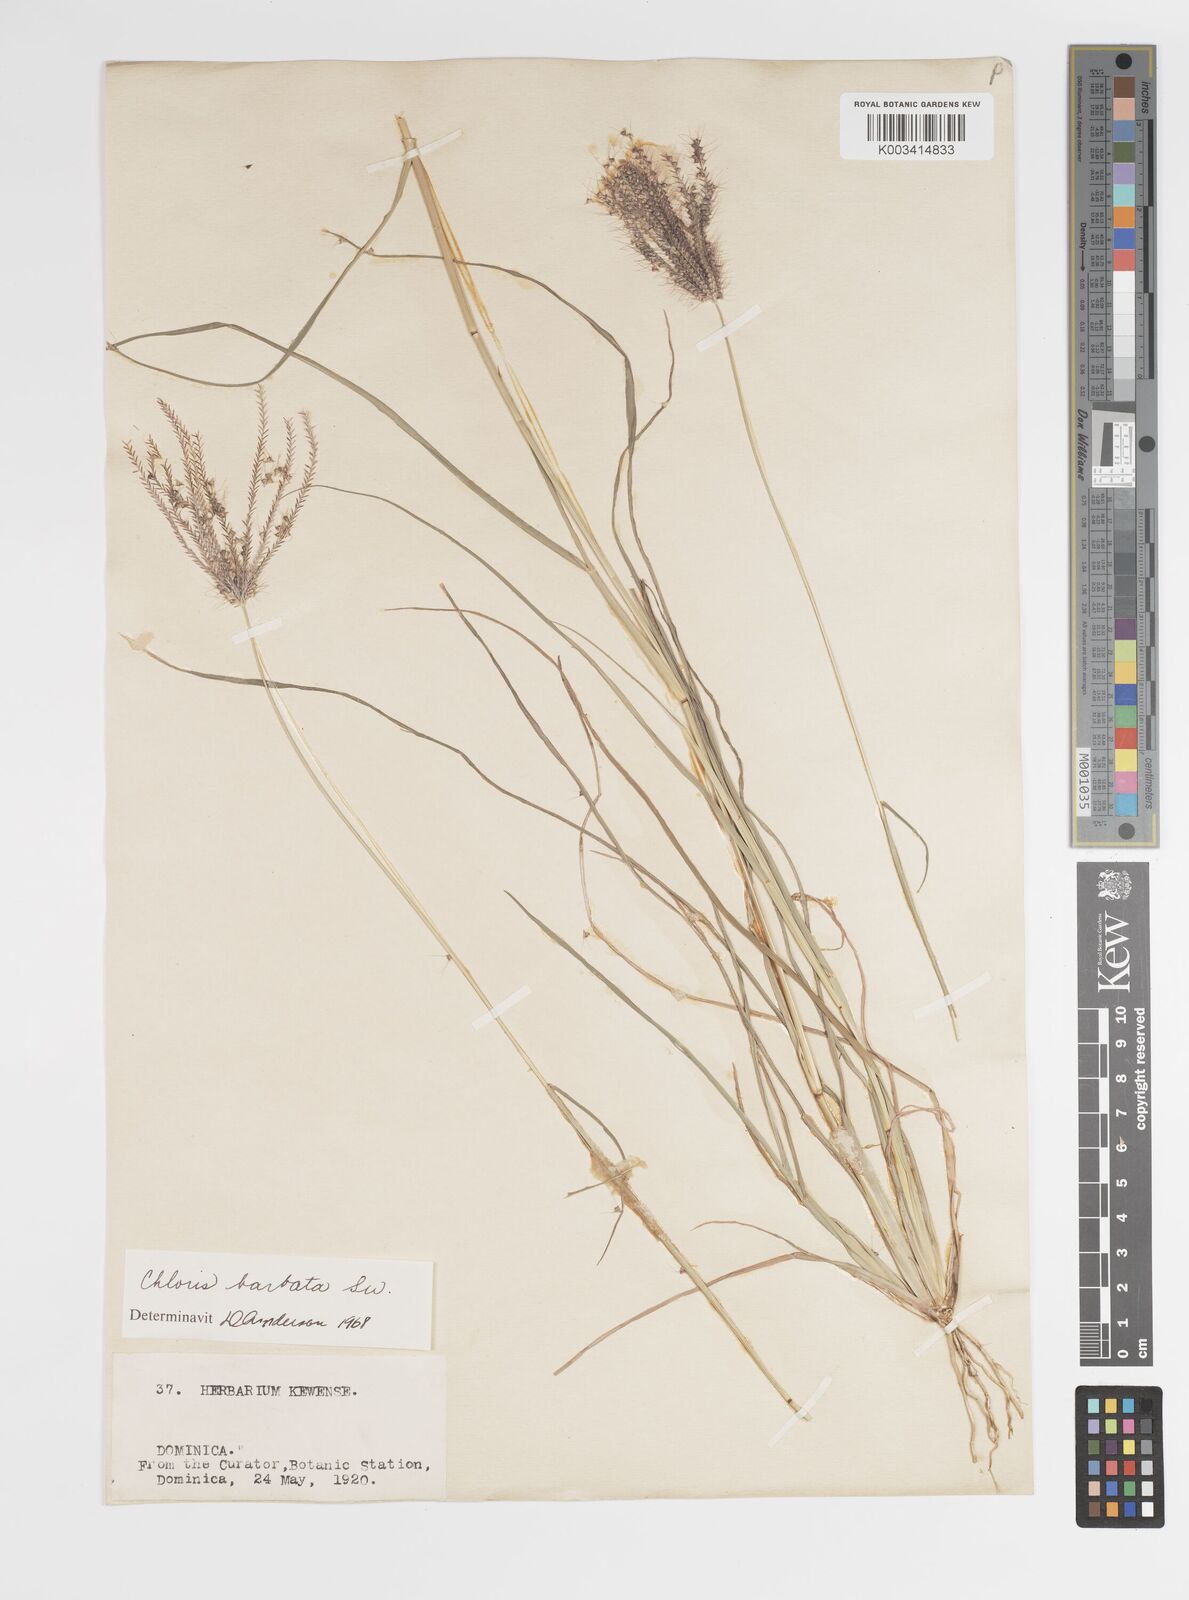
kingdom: Plantae
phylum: Tracheophyta
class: Liliopsida
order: Poales
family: Poaceae
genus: Chloris
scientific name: Chloris barbata
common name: Swollen fingergrass
